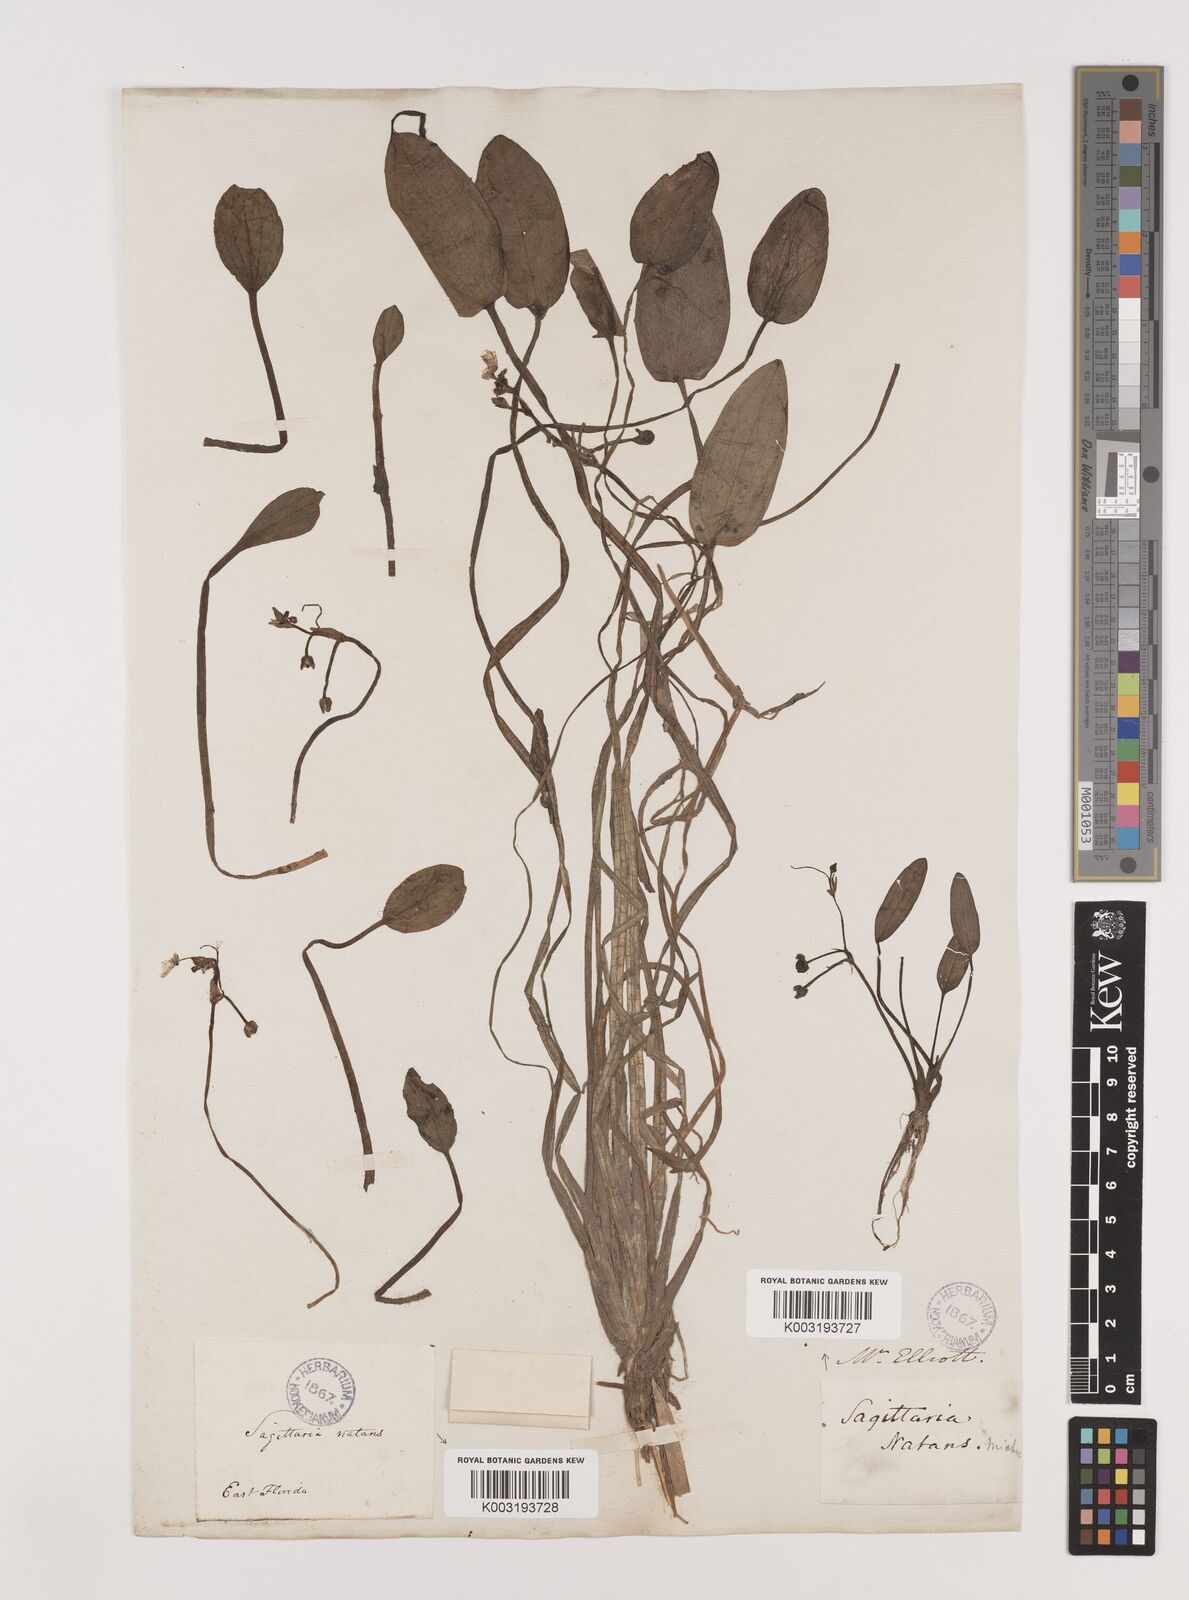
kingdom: Plantae
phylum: Tracheophyta
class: Liliopsida
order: Alismatales
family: Alismataceae
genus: Sagittaria
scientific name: Sagittaria subulata
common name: Narrow-leaved arrowhead
